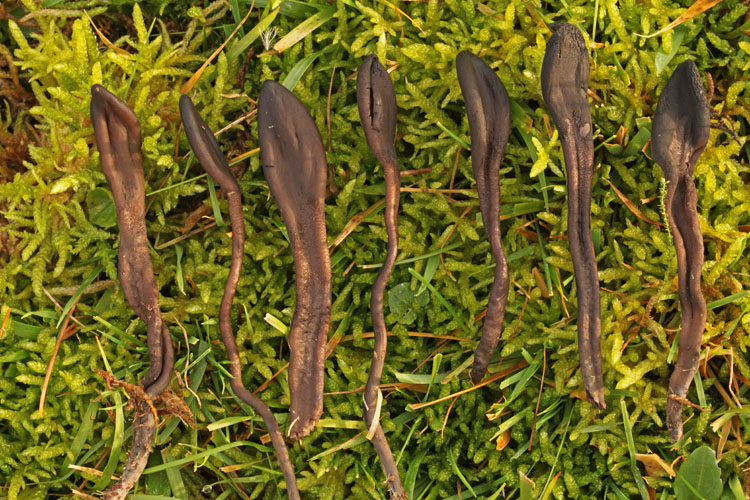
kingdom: Fungi
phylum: Ascomycota
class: Geoglossomycetes
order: Geoglossales
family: Geoglossaceae
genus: Geoglossum
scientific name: Geoglossum fallax
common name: småskællet jordtunge
